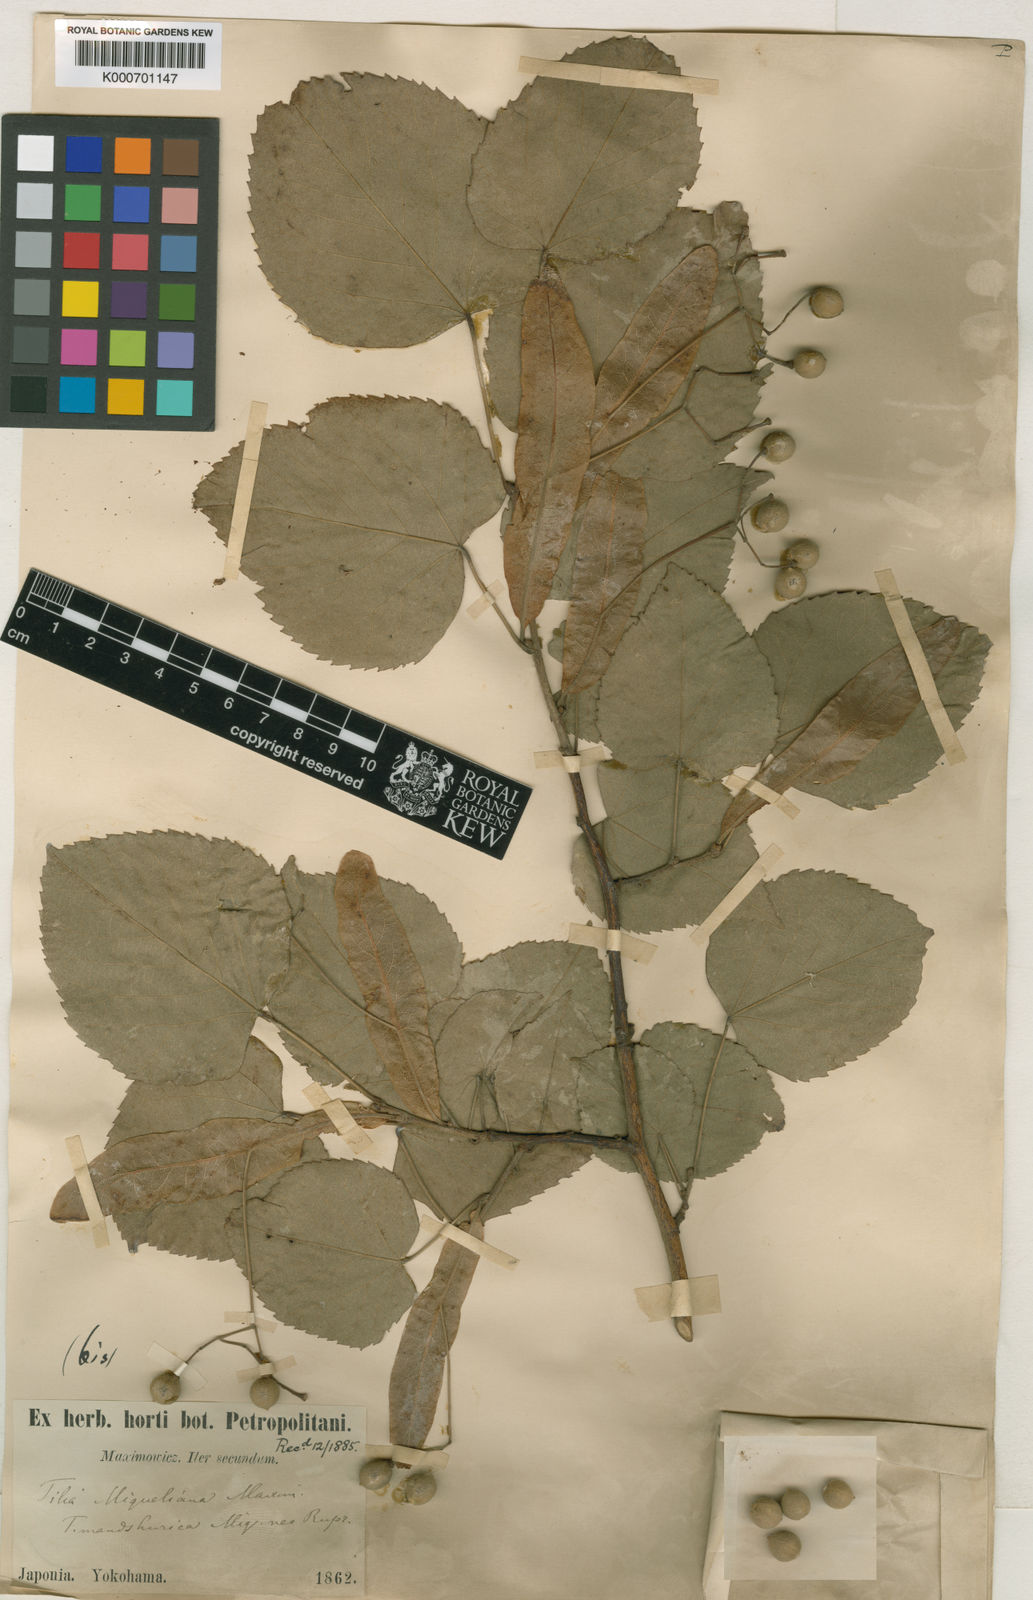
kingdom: Plantae
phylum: Tracheophyta
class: Magnoliopsida
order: Malvales
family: Malvaceae
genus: Tilia
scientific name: Tilia miqueliana
